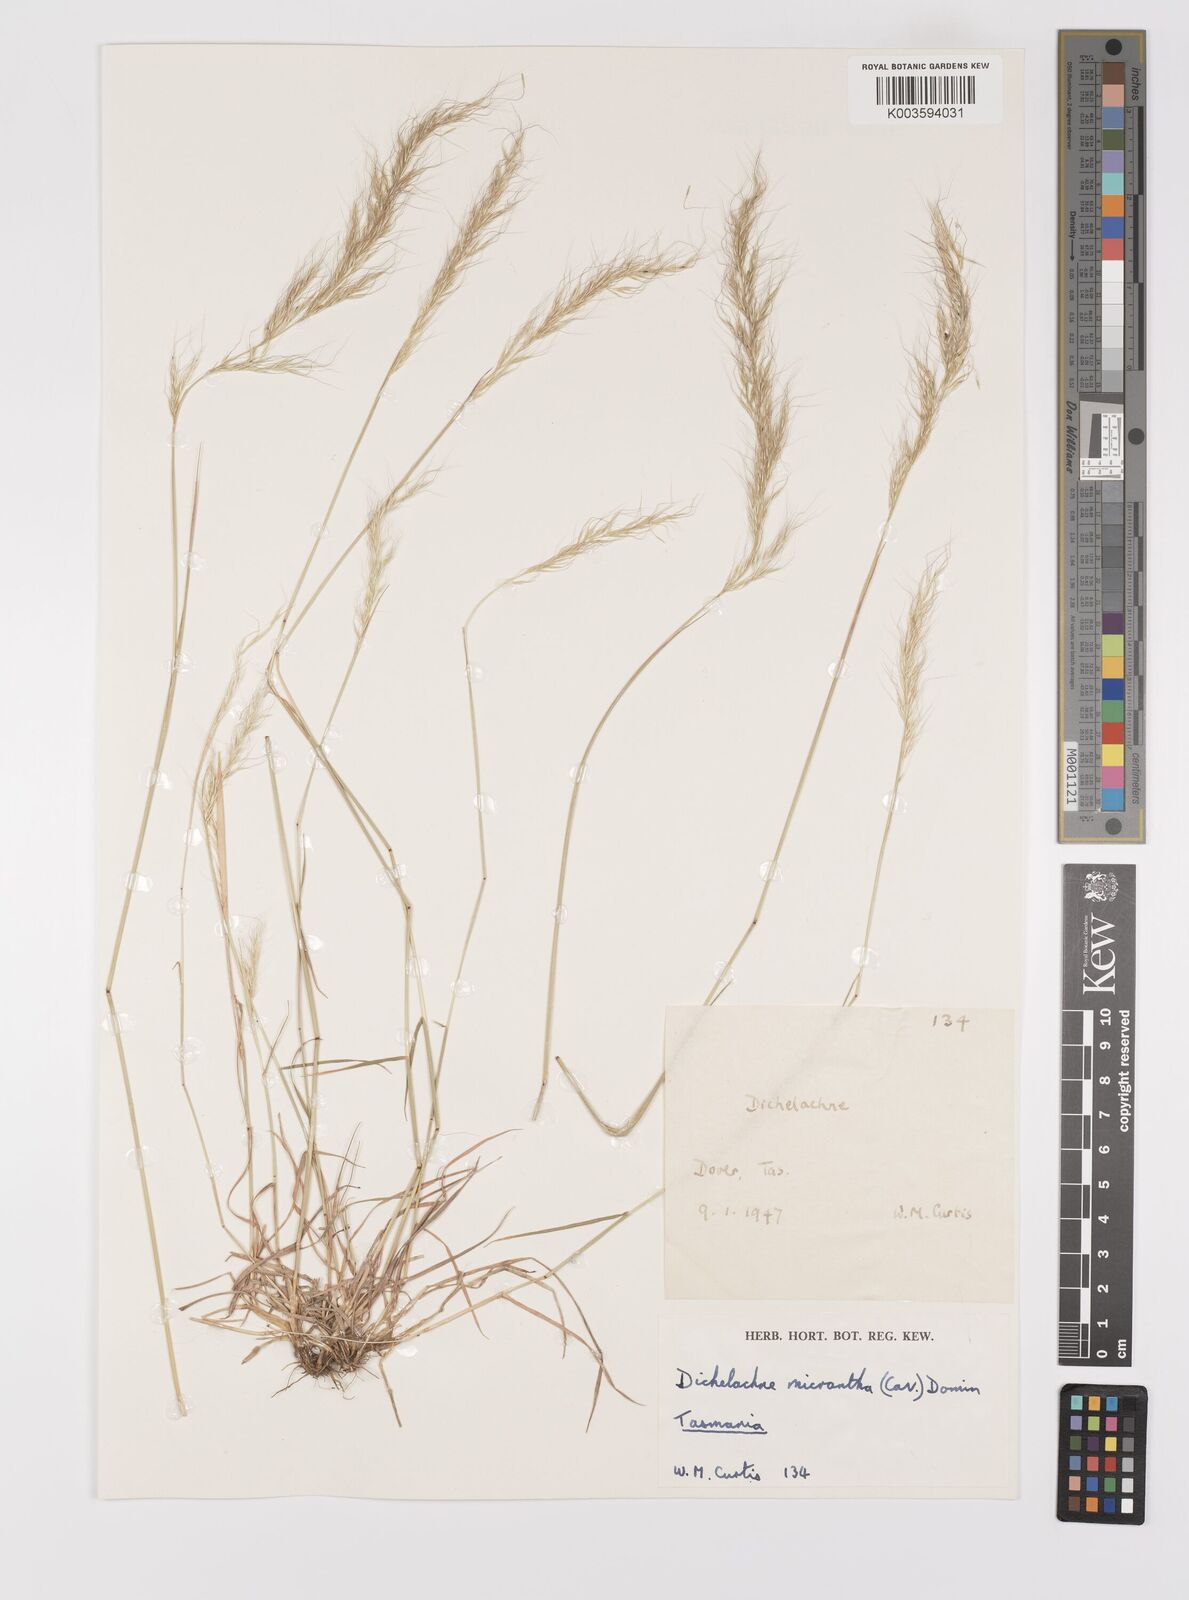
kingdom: Plantae
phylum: Tracheophyta
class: Liliopsida
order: Poales
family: Poaceae
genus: Dichelachne
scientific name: Dichelachne micrantha
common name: Plumegrass
